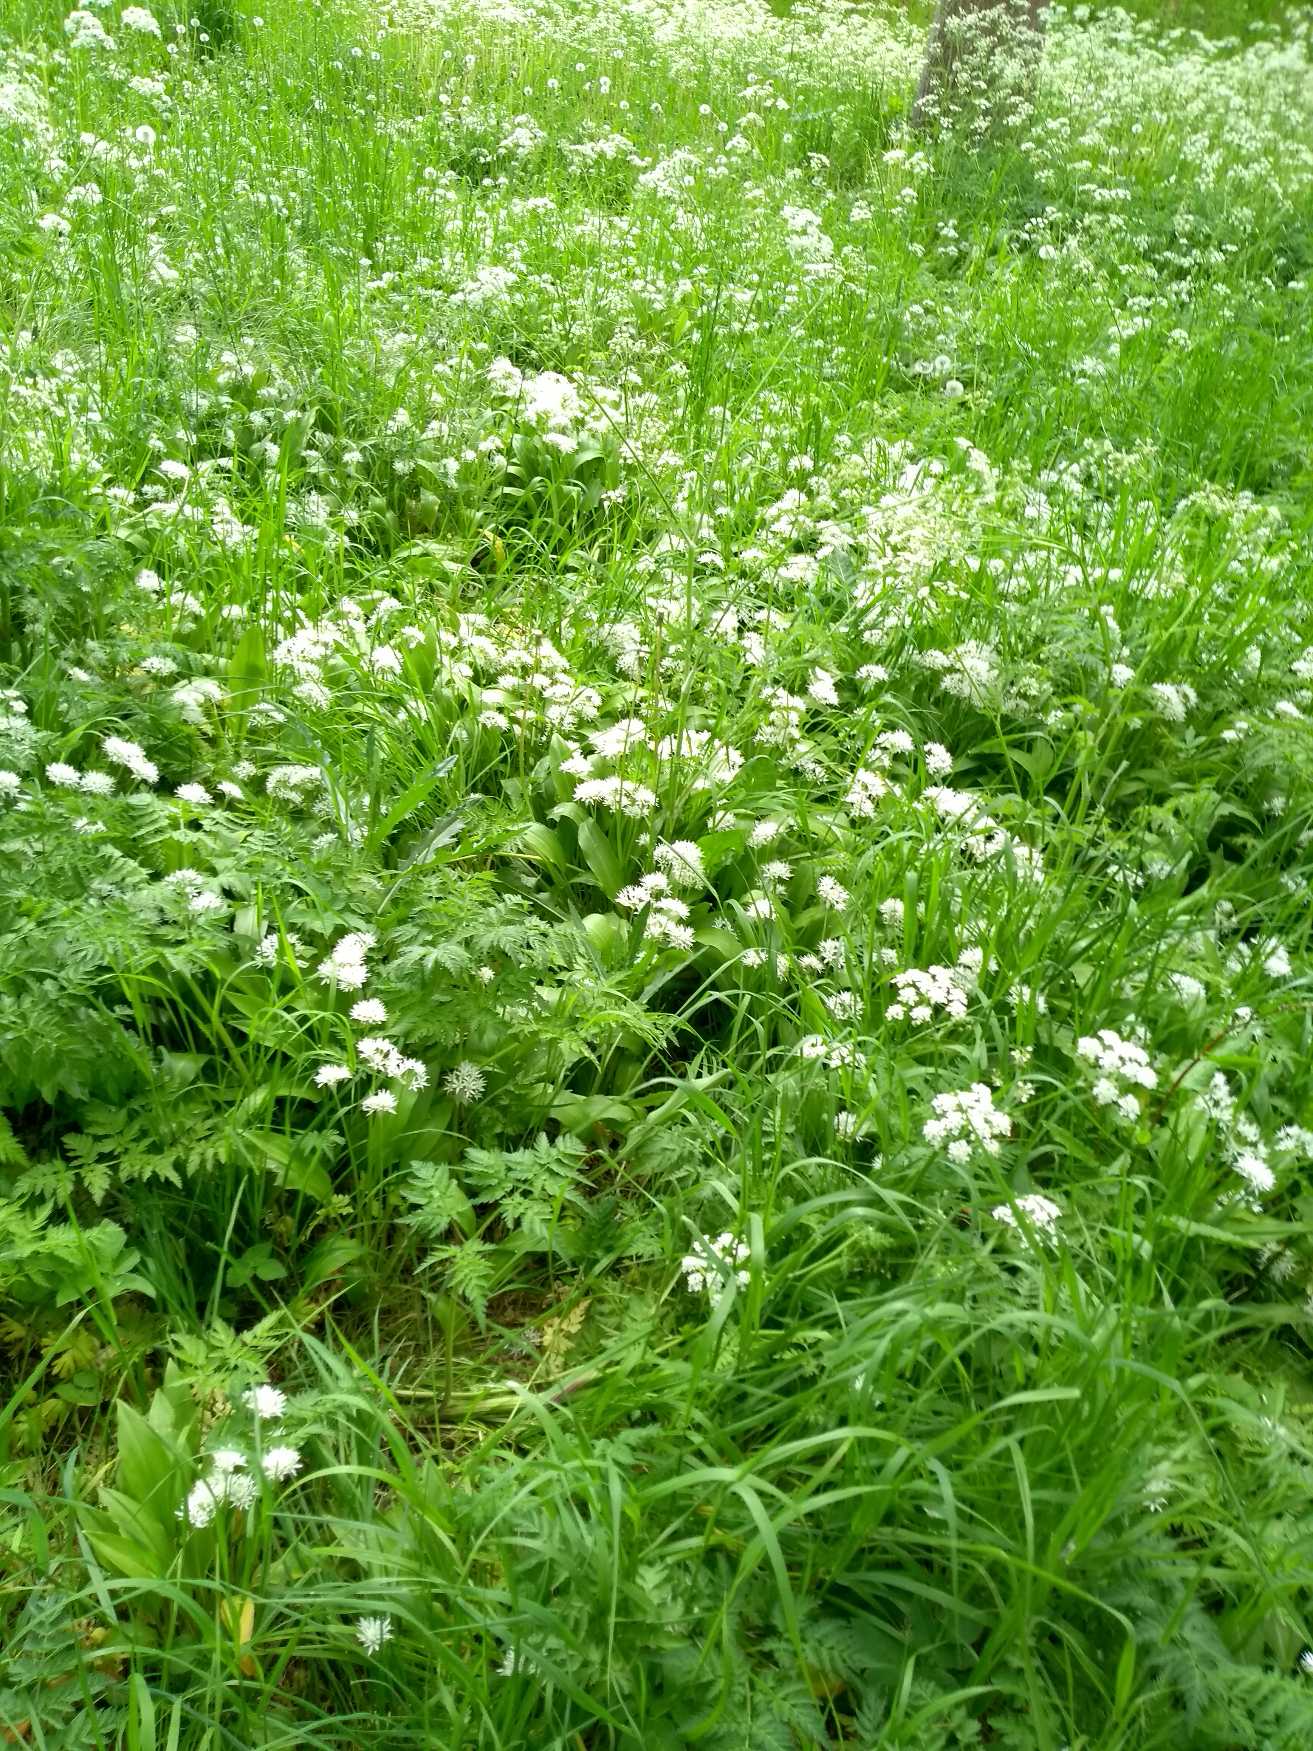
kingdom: Plantae
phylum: Tracheophyta
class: Liliopsida
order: Asparagales
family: Amaryllidaceae
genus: Allium
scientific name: Allium ursinum
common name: Rams-løg
